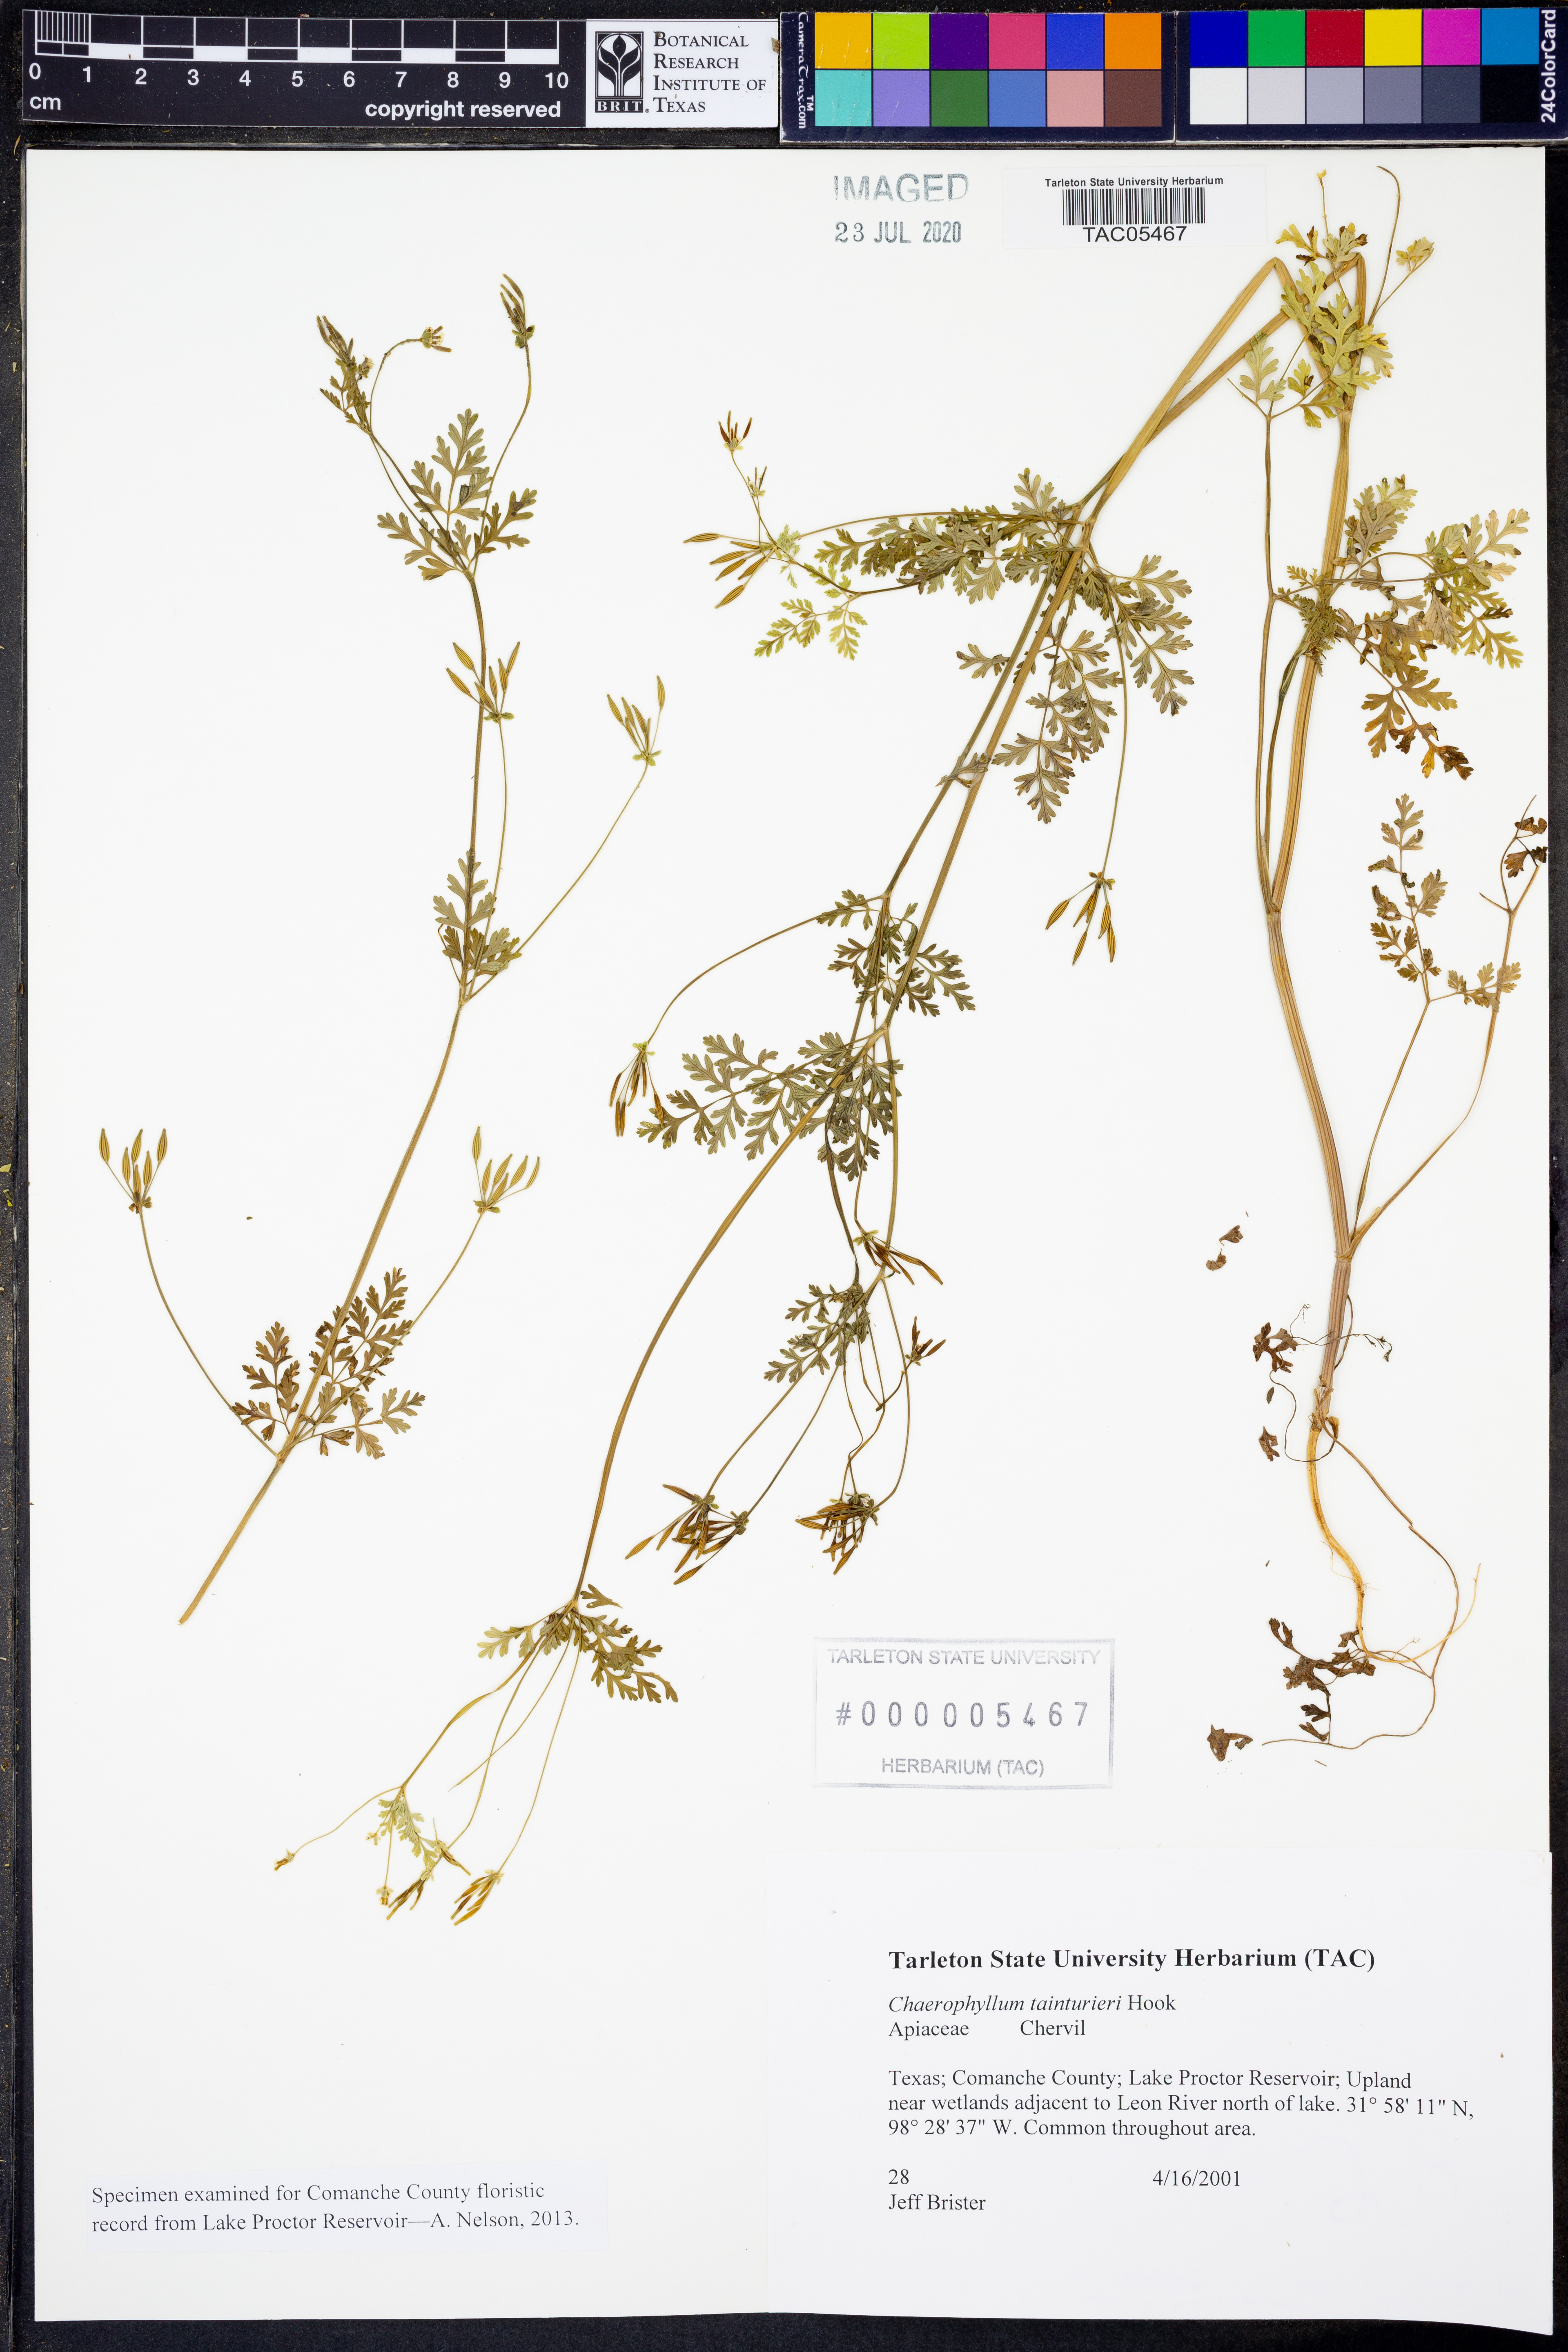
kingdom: Plantae
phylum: Tracheophyta
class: Magnoliopsida
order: Apiales
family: Apiaceae
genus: Chaerophyllum
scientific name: Chaerophyllum tainturieri
